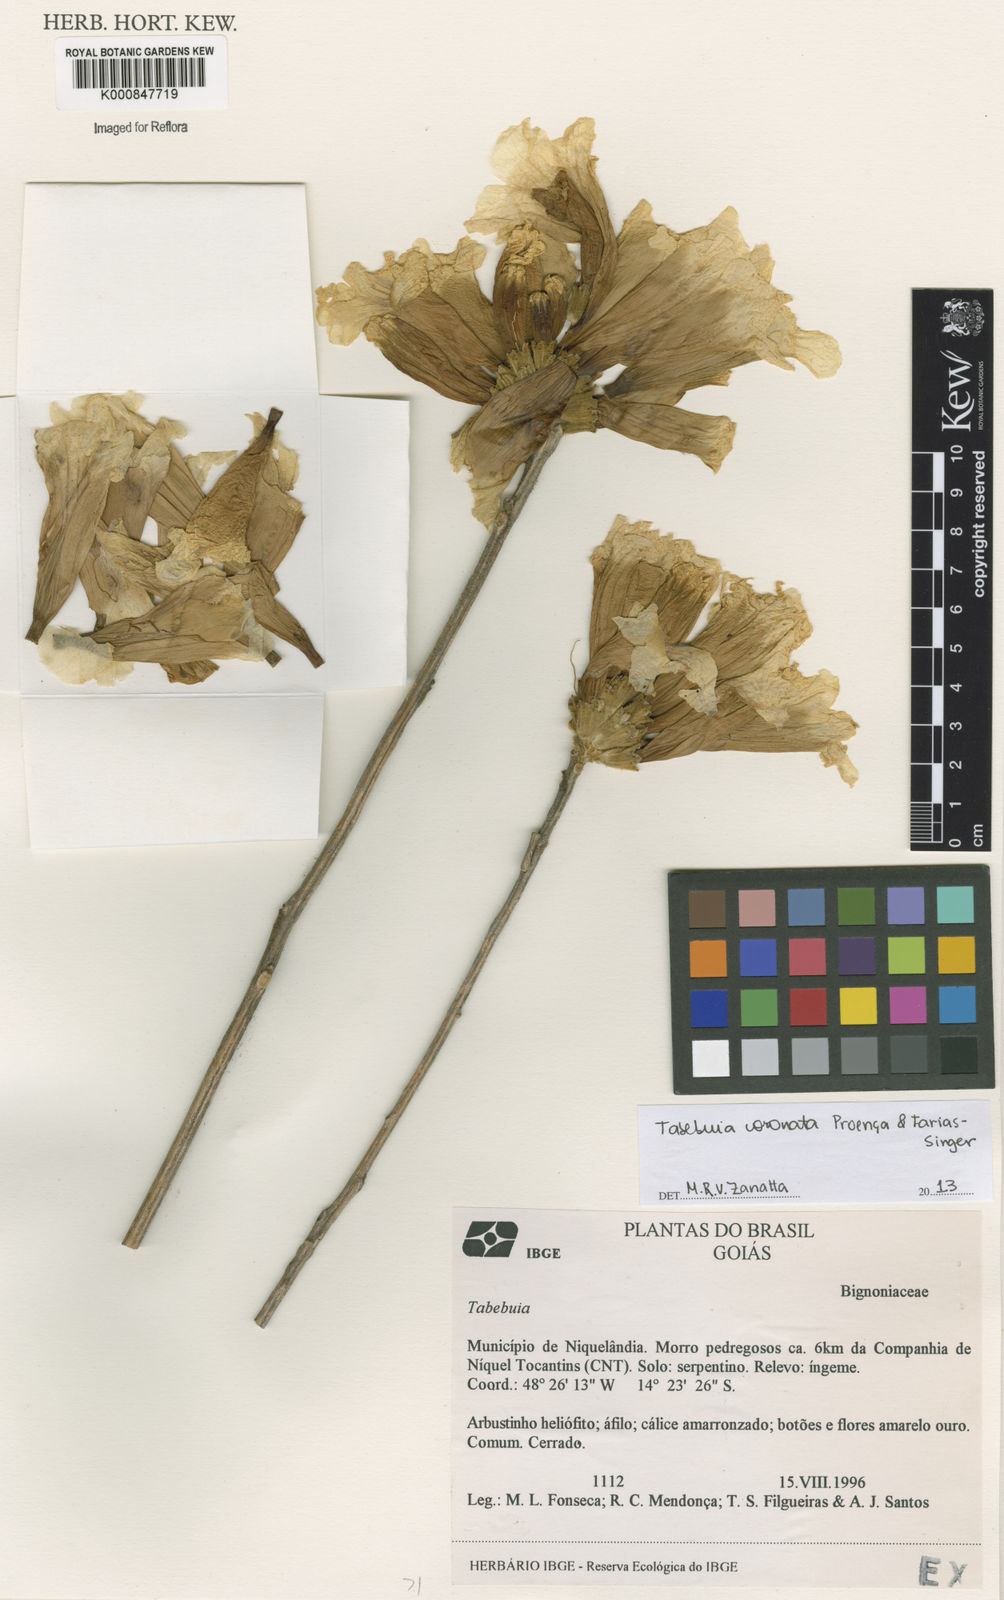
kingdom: Plantae
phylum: Tracheophyta
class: Magnoliopsida
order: Lamiales
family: Bignoniaceae
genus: Handroanthus
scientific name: Handroanthus coronatus
